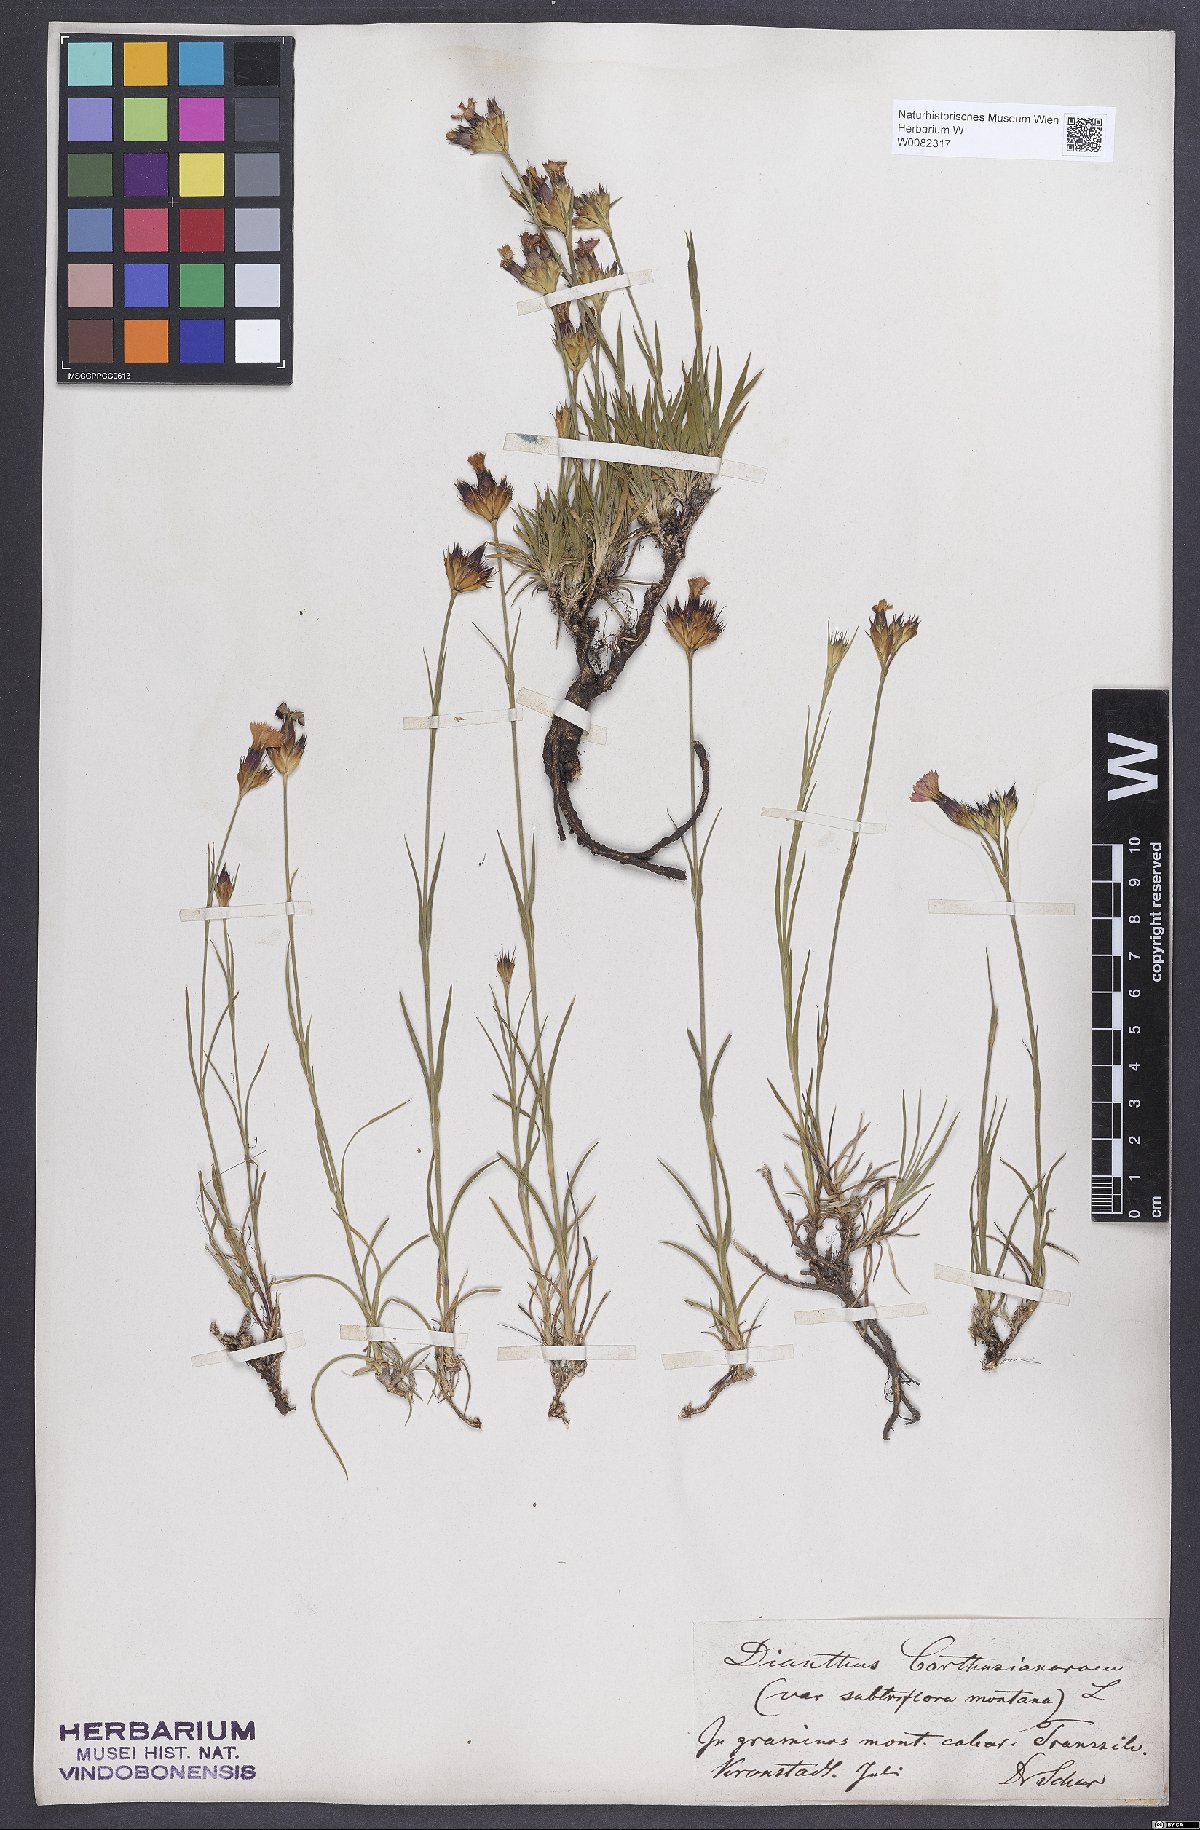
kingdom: Plantae
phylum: Tracheophyta
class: Magnoliopsida
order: Caryophyllales
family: Caryophyllaceae
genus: Dianthus
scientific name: Dianthus carthusianorum
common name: Carthusian pink
